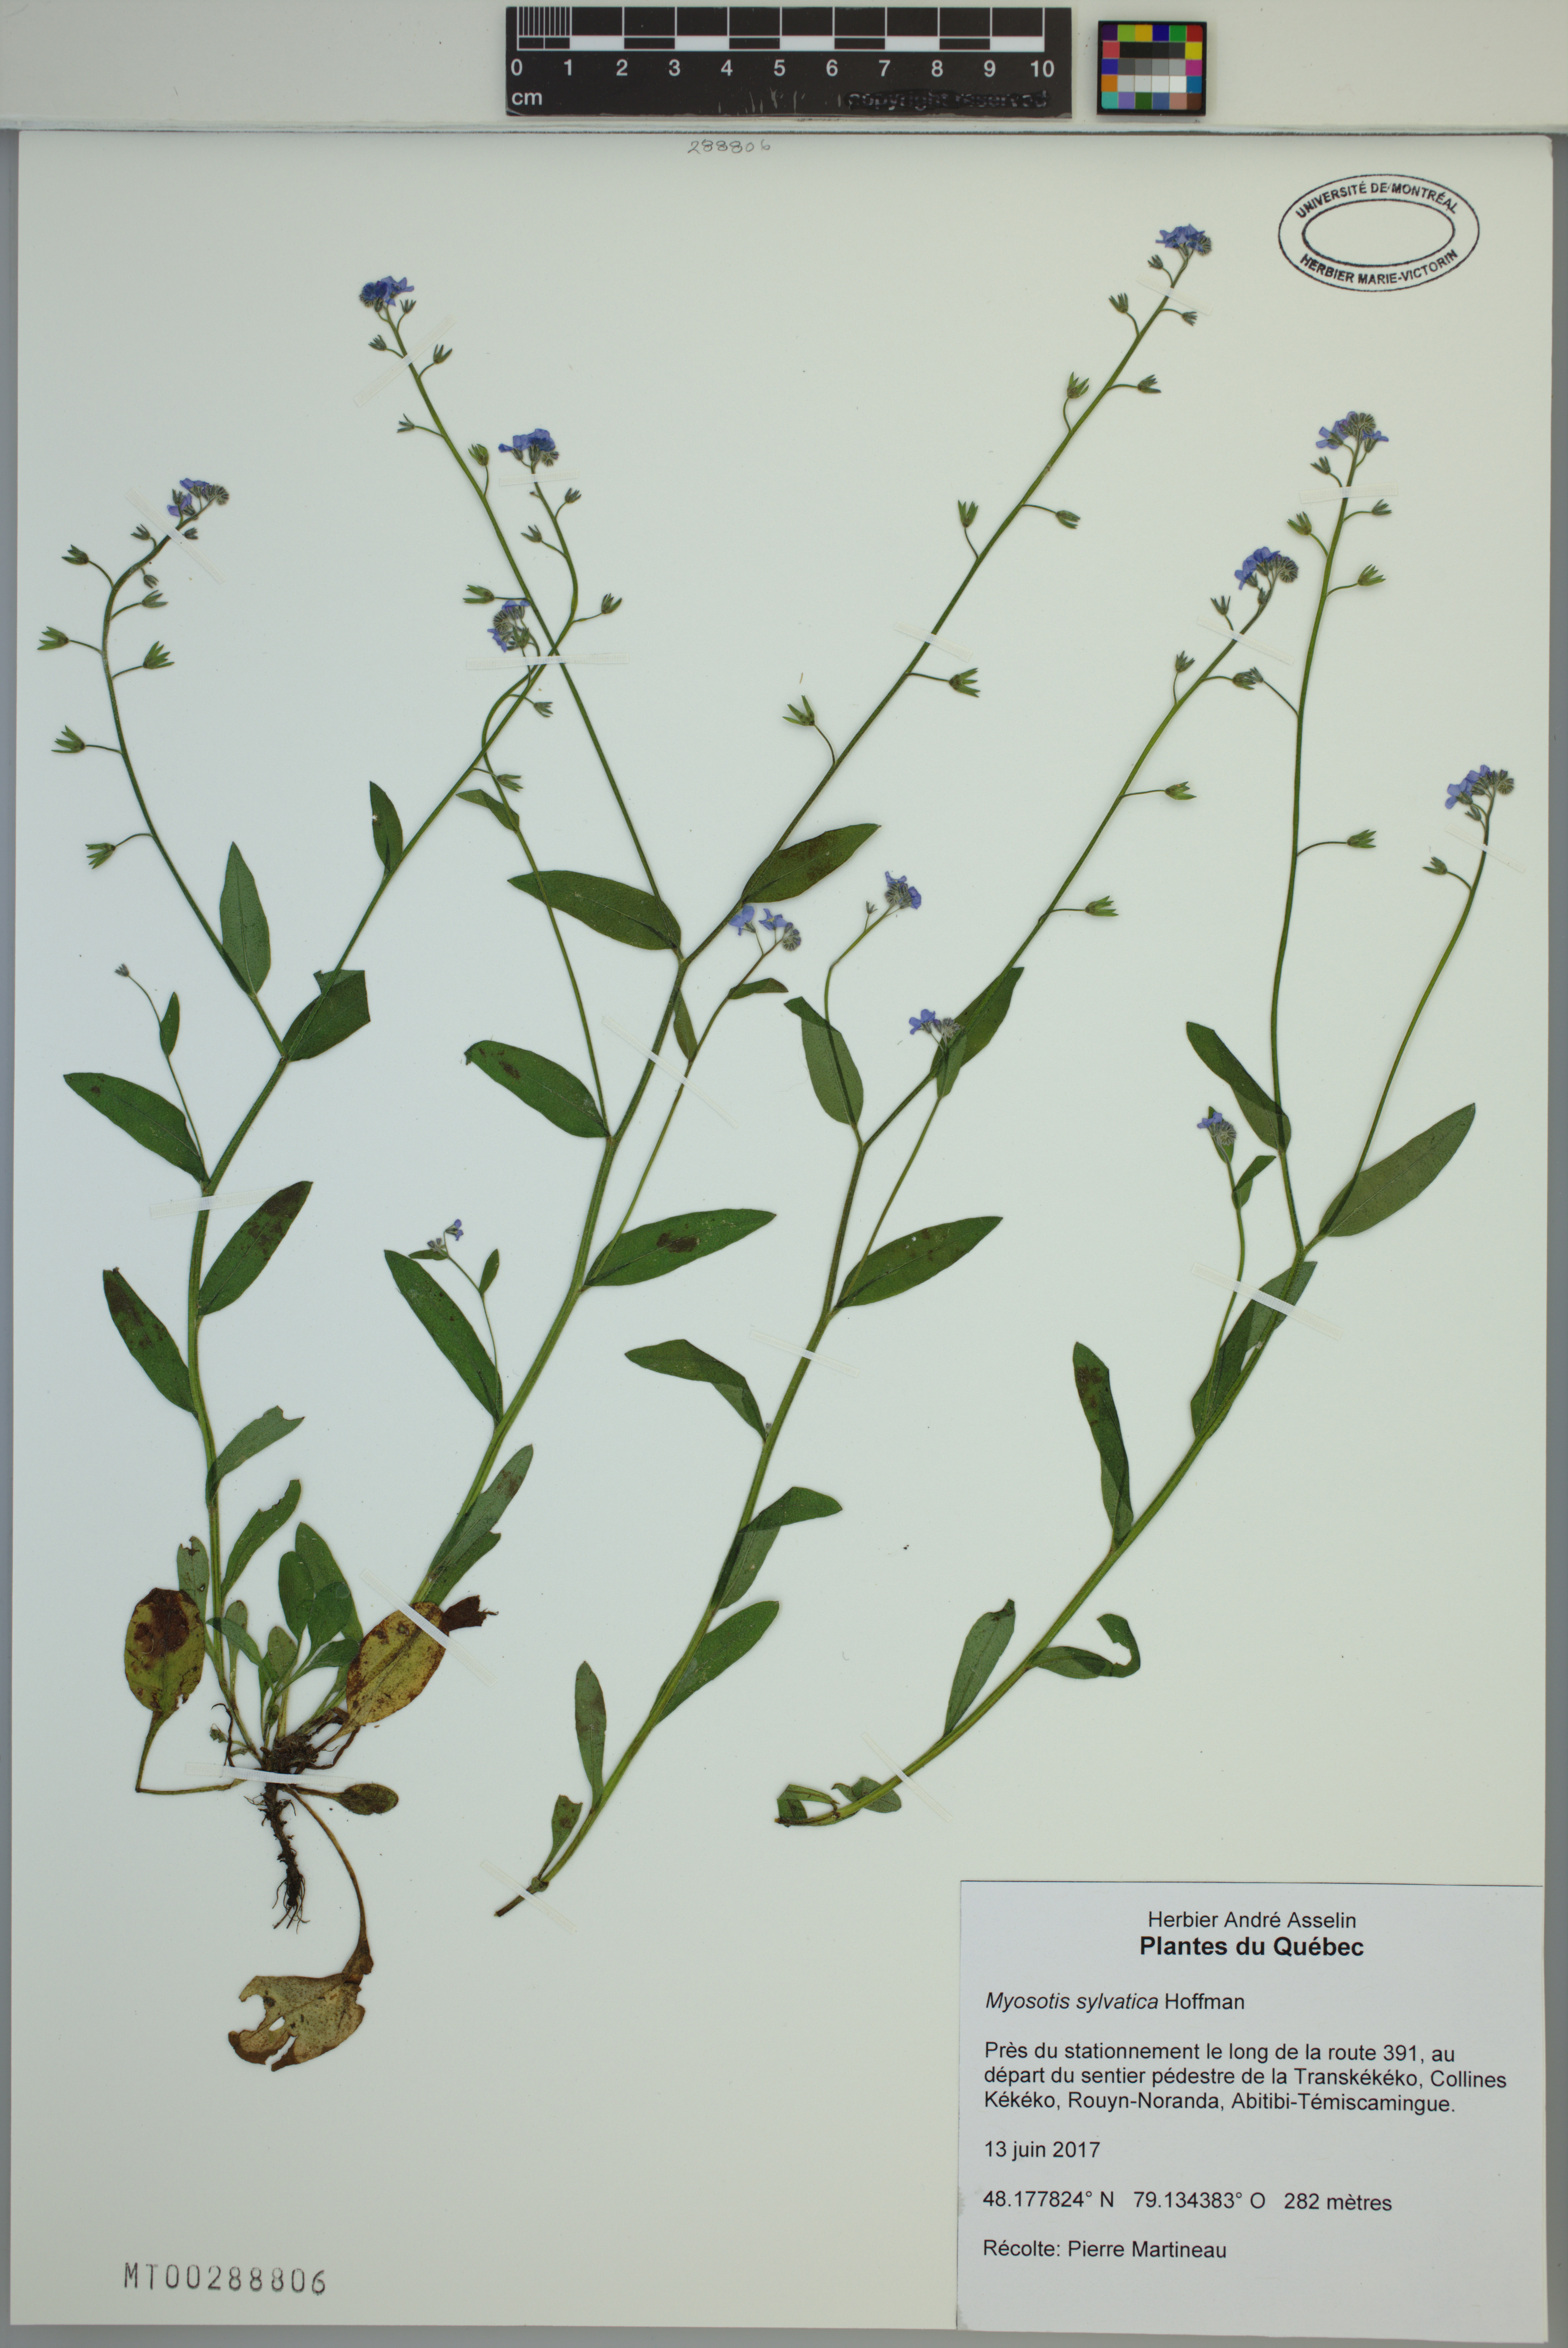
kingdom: Plantae
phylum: Tracheophyta
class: Magnoliopsida
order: Boraginales
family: Boraginaceae
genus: Myosotis
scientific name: Myosotis sylvatica
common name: Wood forget-me-not
